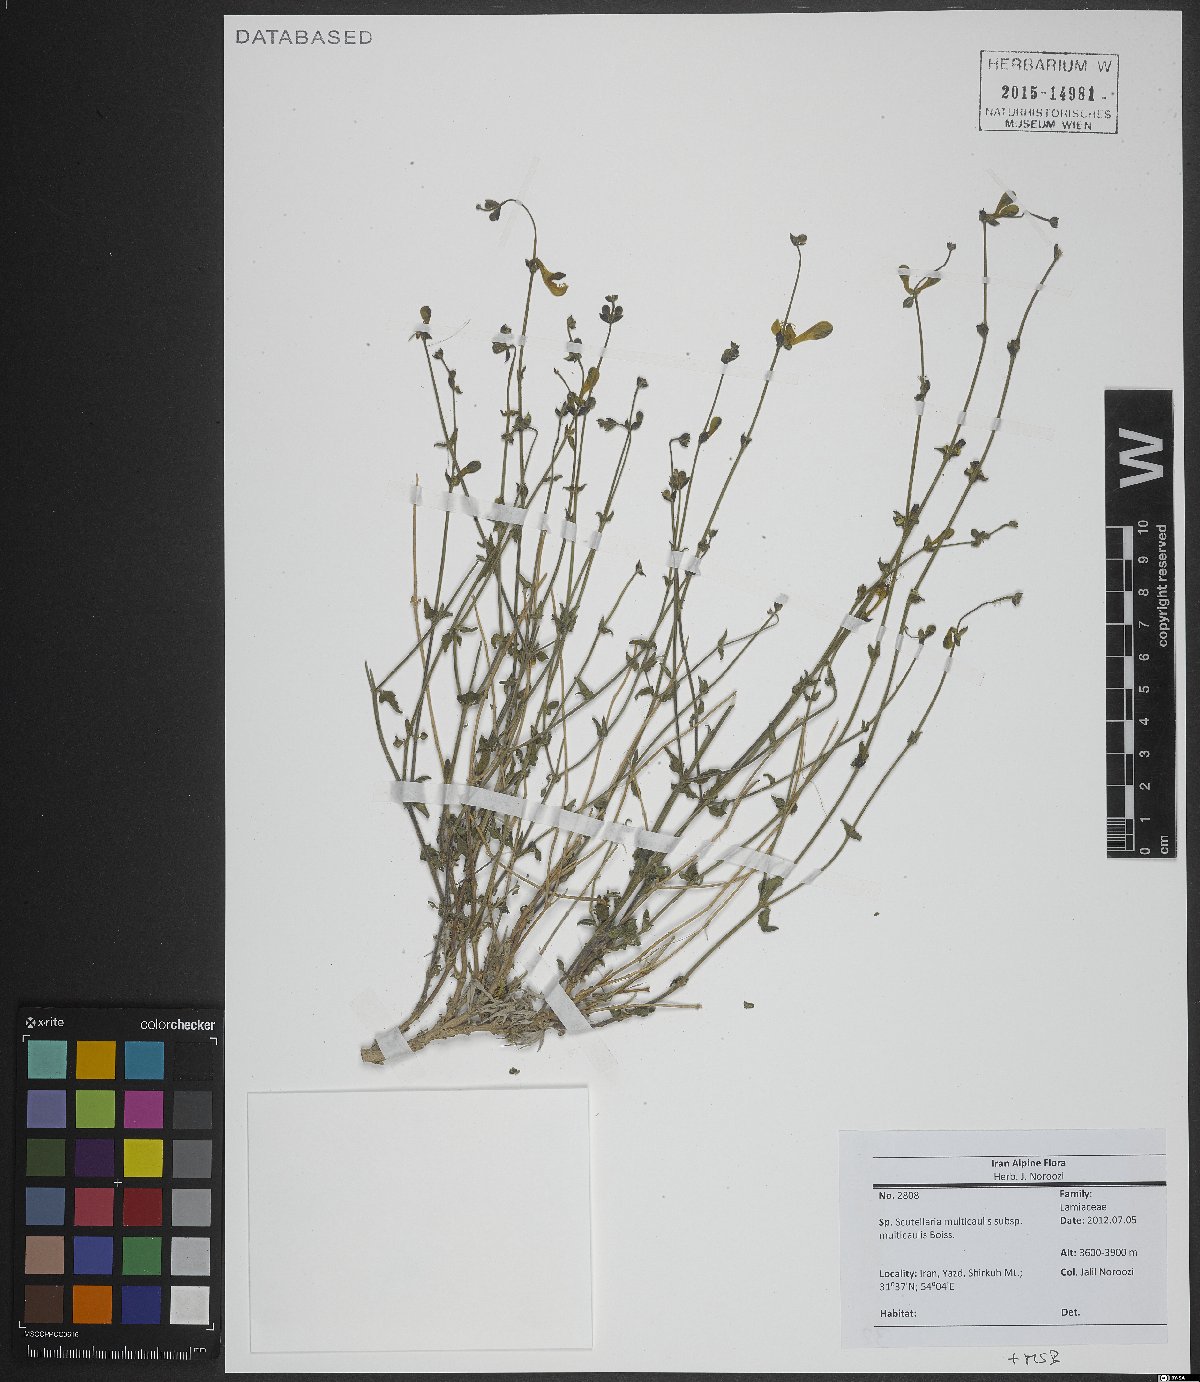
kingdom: Plantae
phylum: Tracheophyta
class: Magnoliopsida
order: Lamiales
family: Lamiaceae
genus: Scutellaria
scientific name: Scutellaria multicaulis
